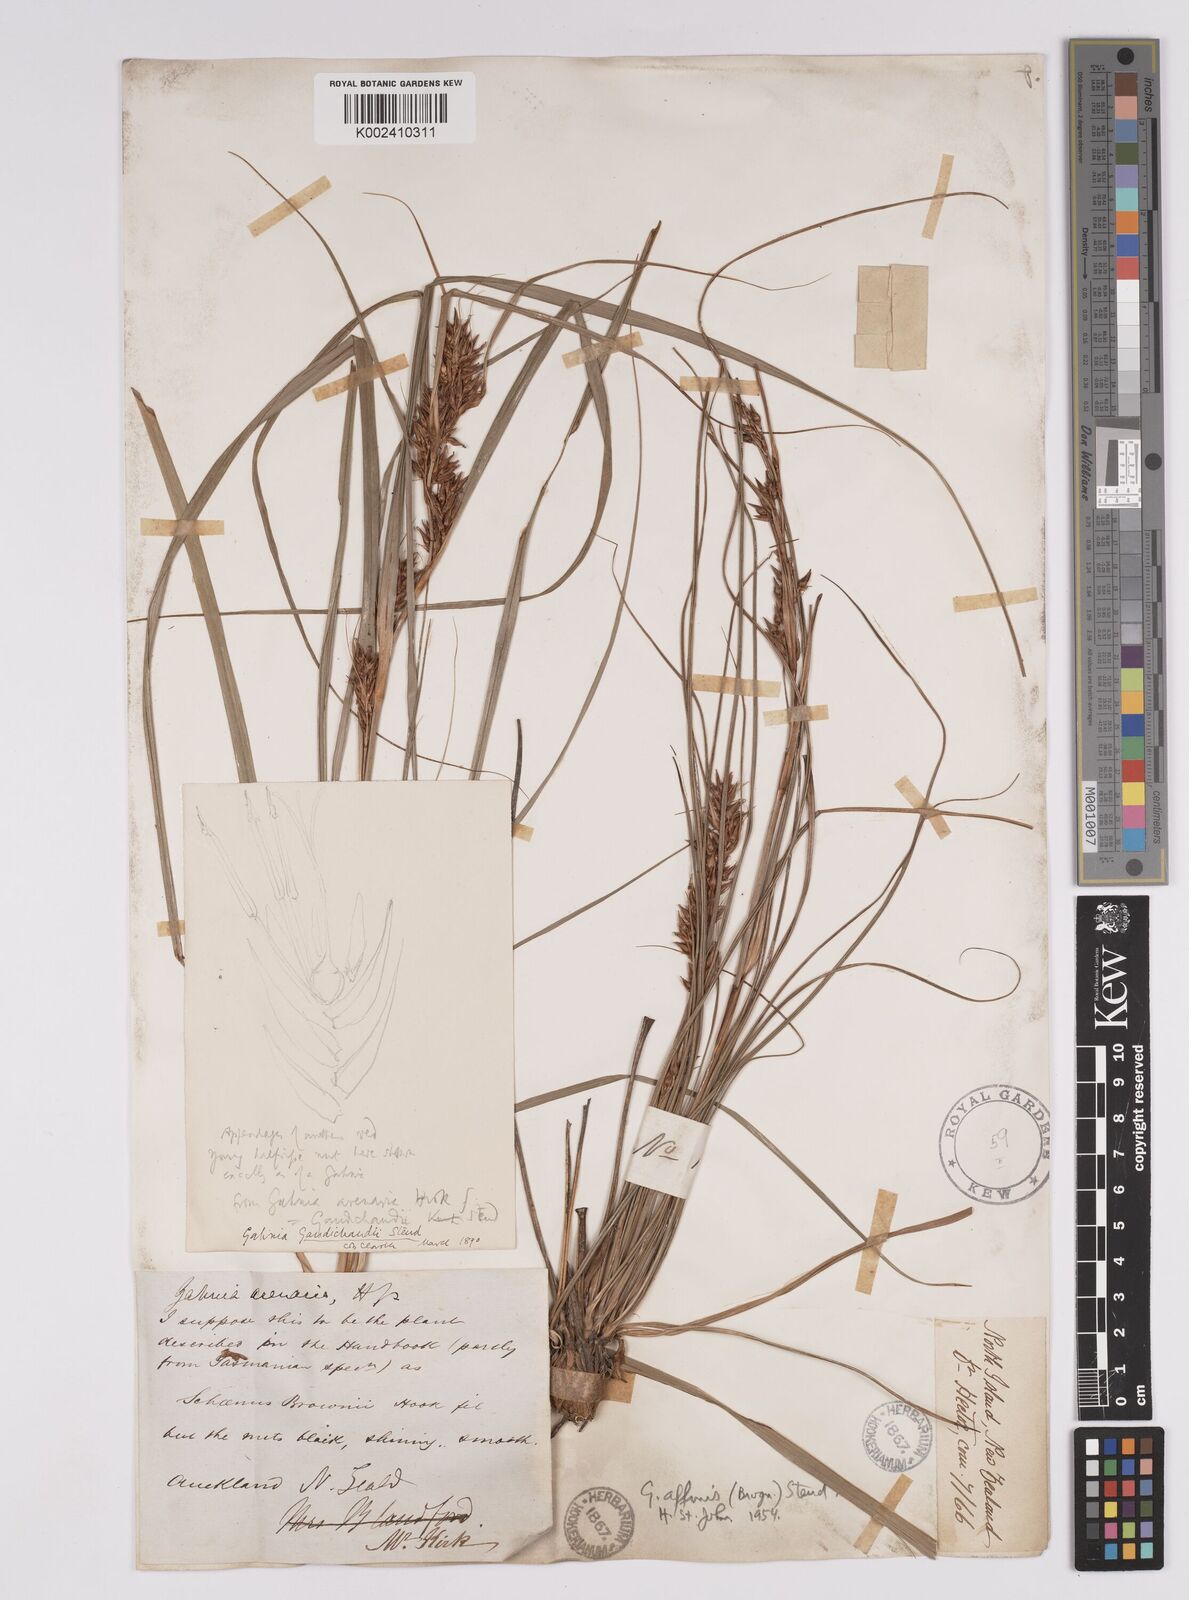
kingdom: Plantae
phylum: Tracheophyta
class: Liliopsida
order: Poales
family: Cyperaceae
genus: Morelotia
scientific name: Morelotia affinis
